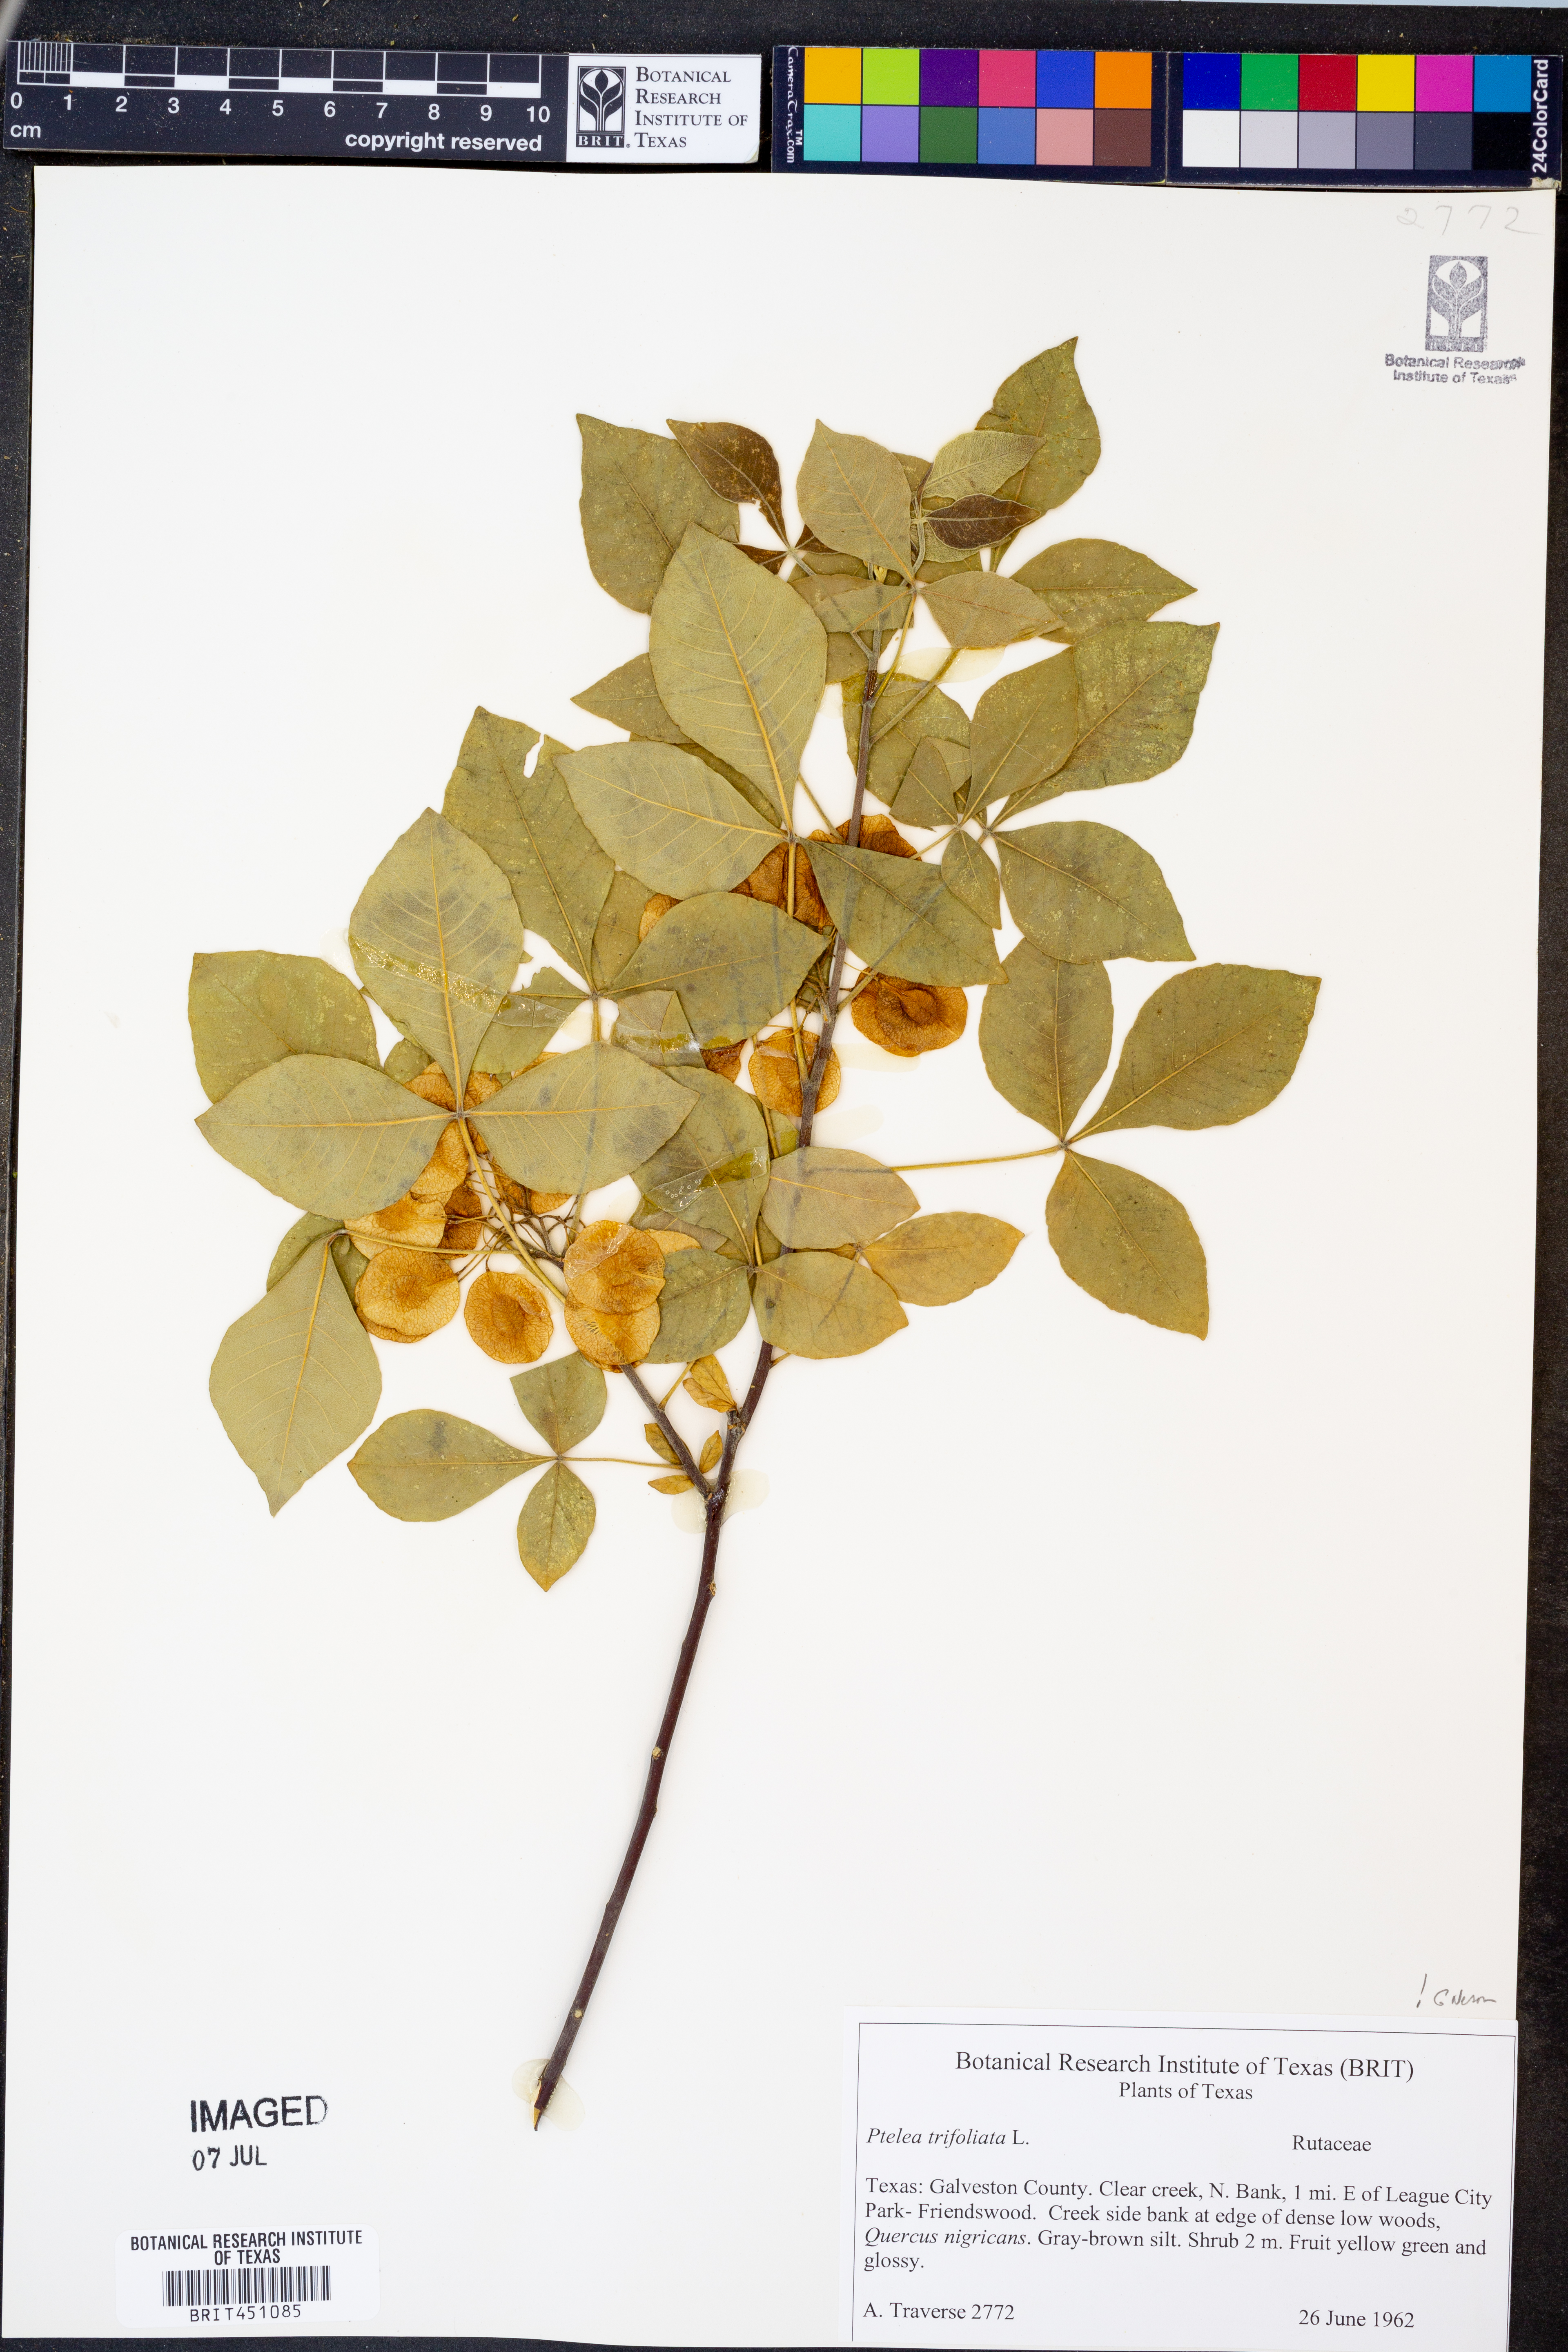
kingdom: Plantae
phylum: Tracheophyta
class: Magnoliopsida
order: Sapindales
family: Rutaceae
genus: Ptelea
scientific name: Ptelea trifoliata
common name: Common hop-tree
